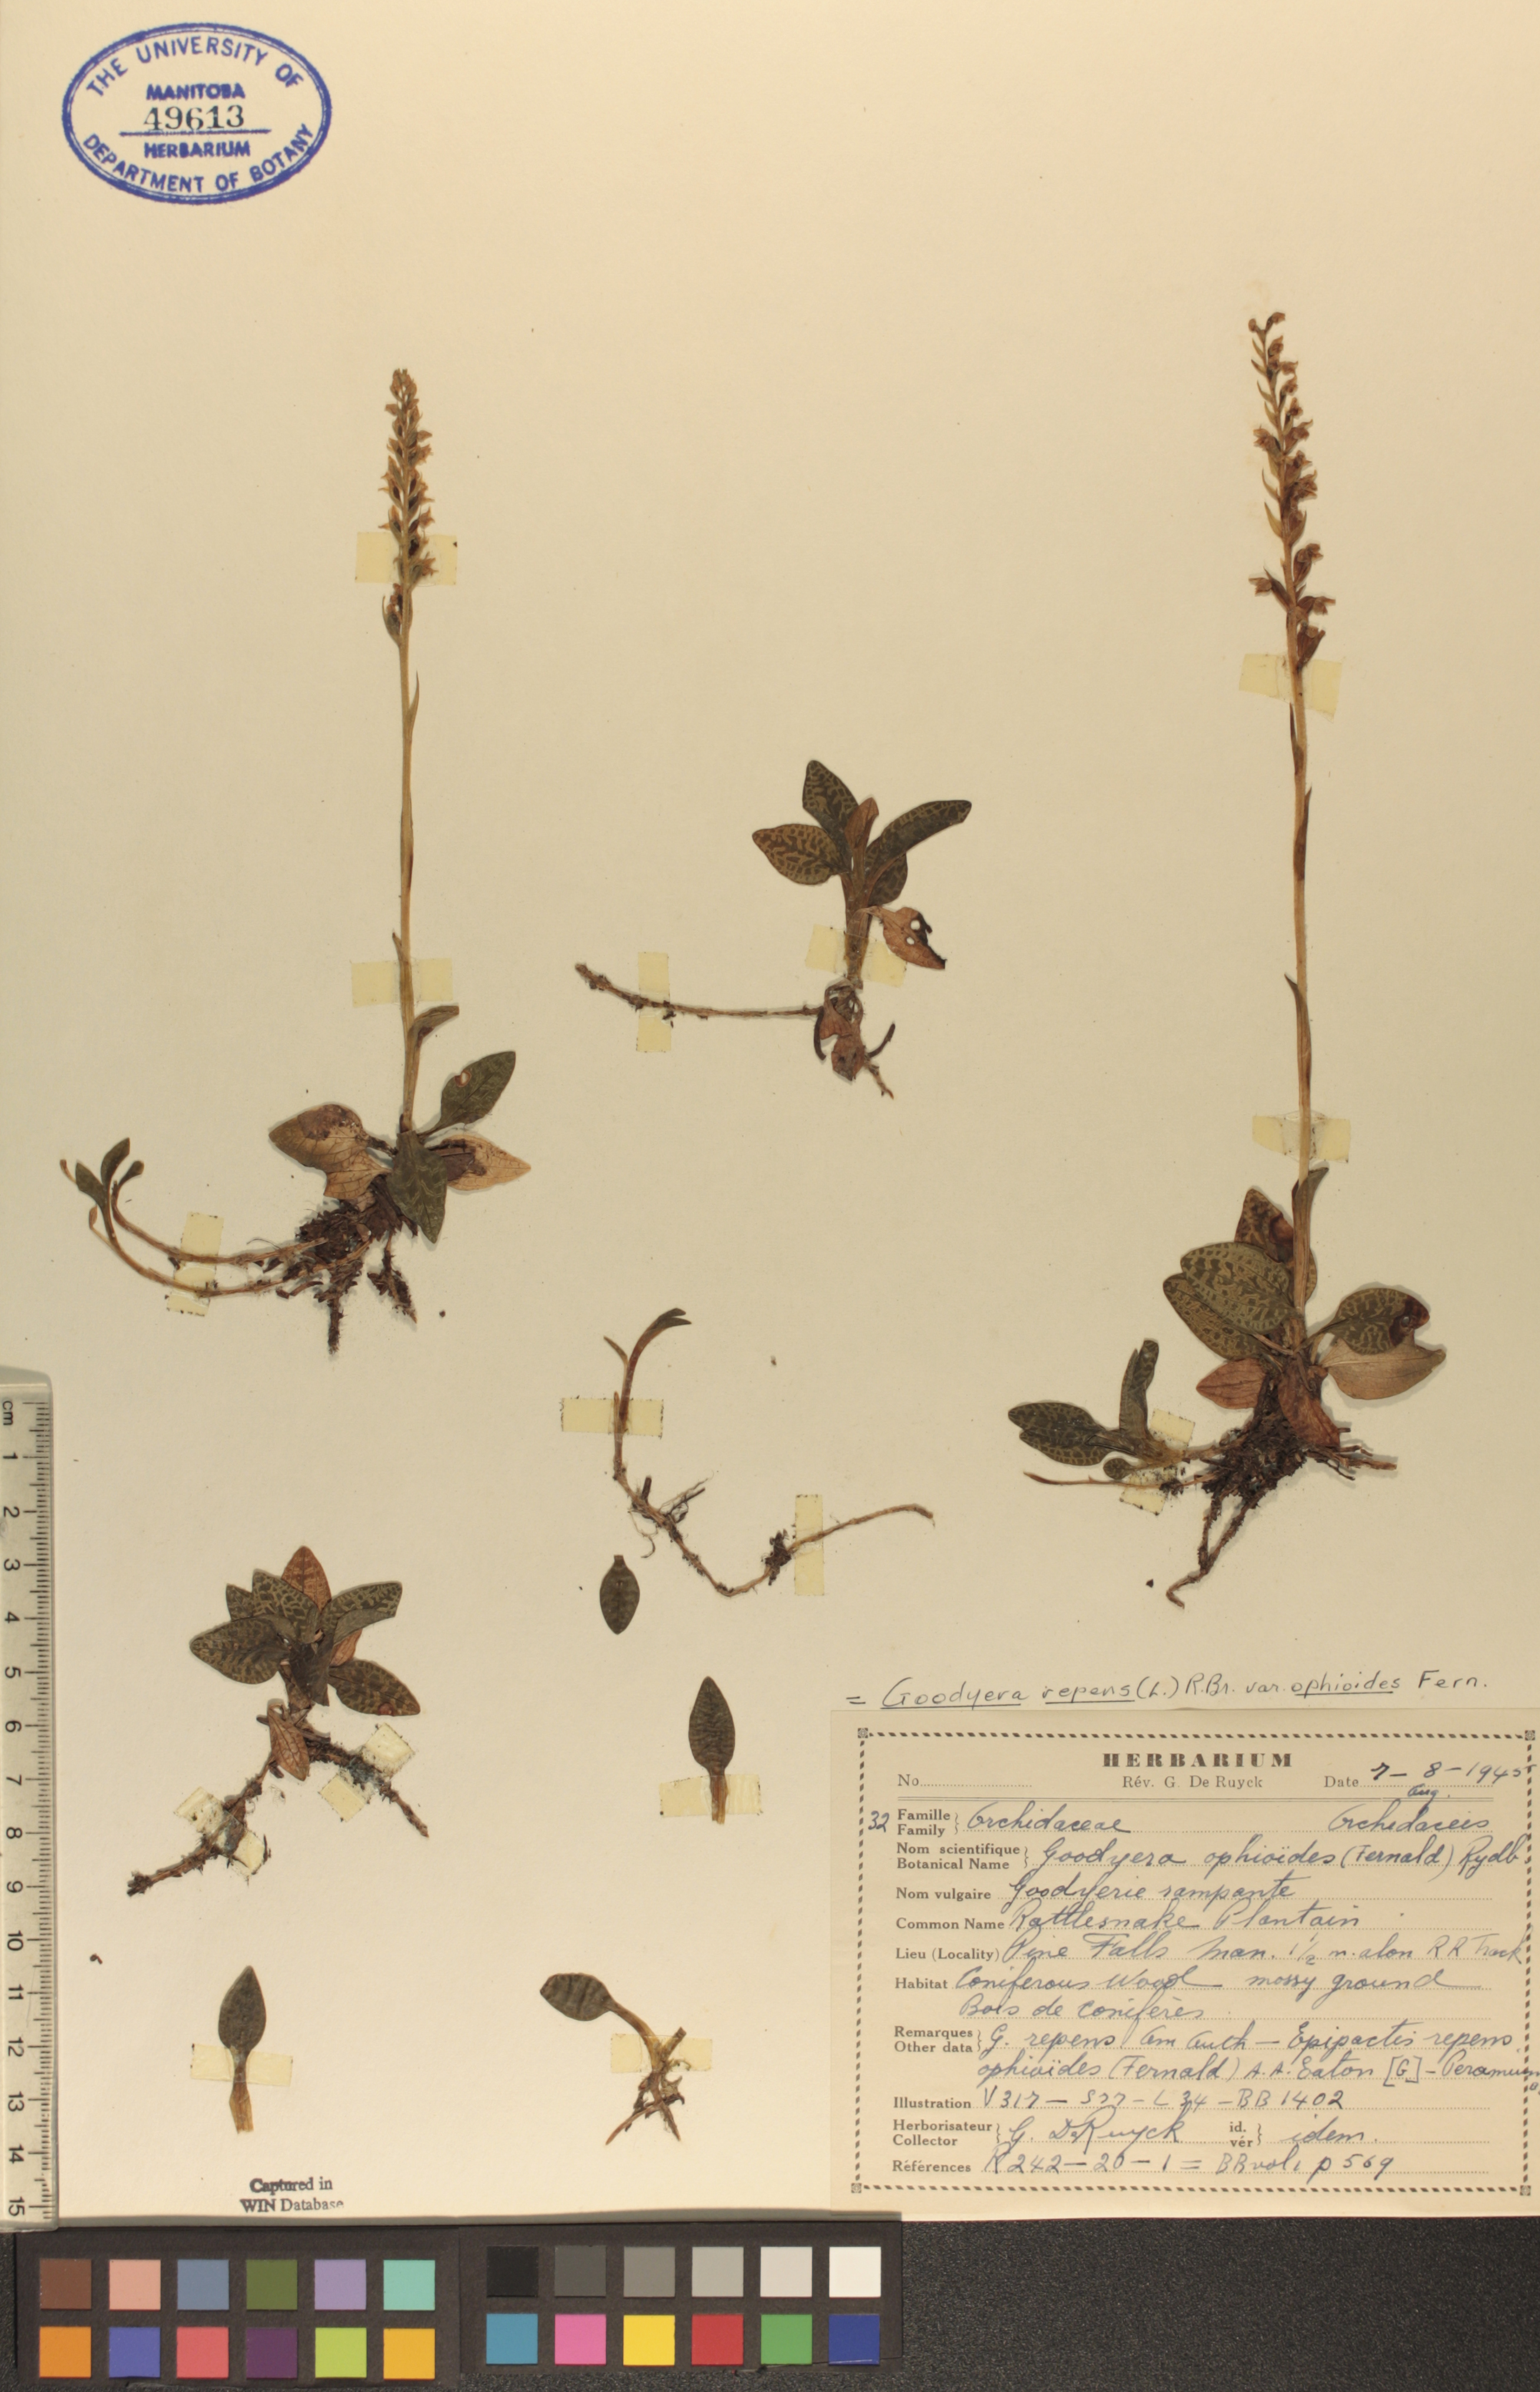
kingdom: Plantae
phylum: Tracheophyta
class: Liliopsida
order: Asparagales
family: Orchidaceae
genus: Goodyera
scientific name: Goodyera repens
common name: Creeping lady's-tresses
